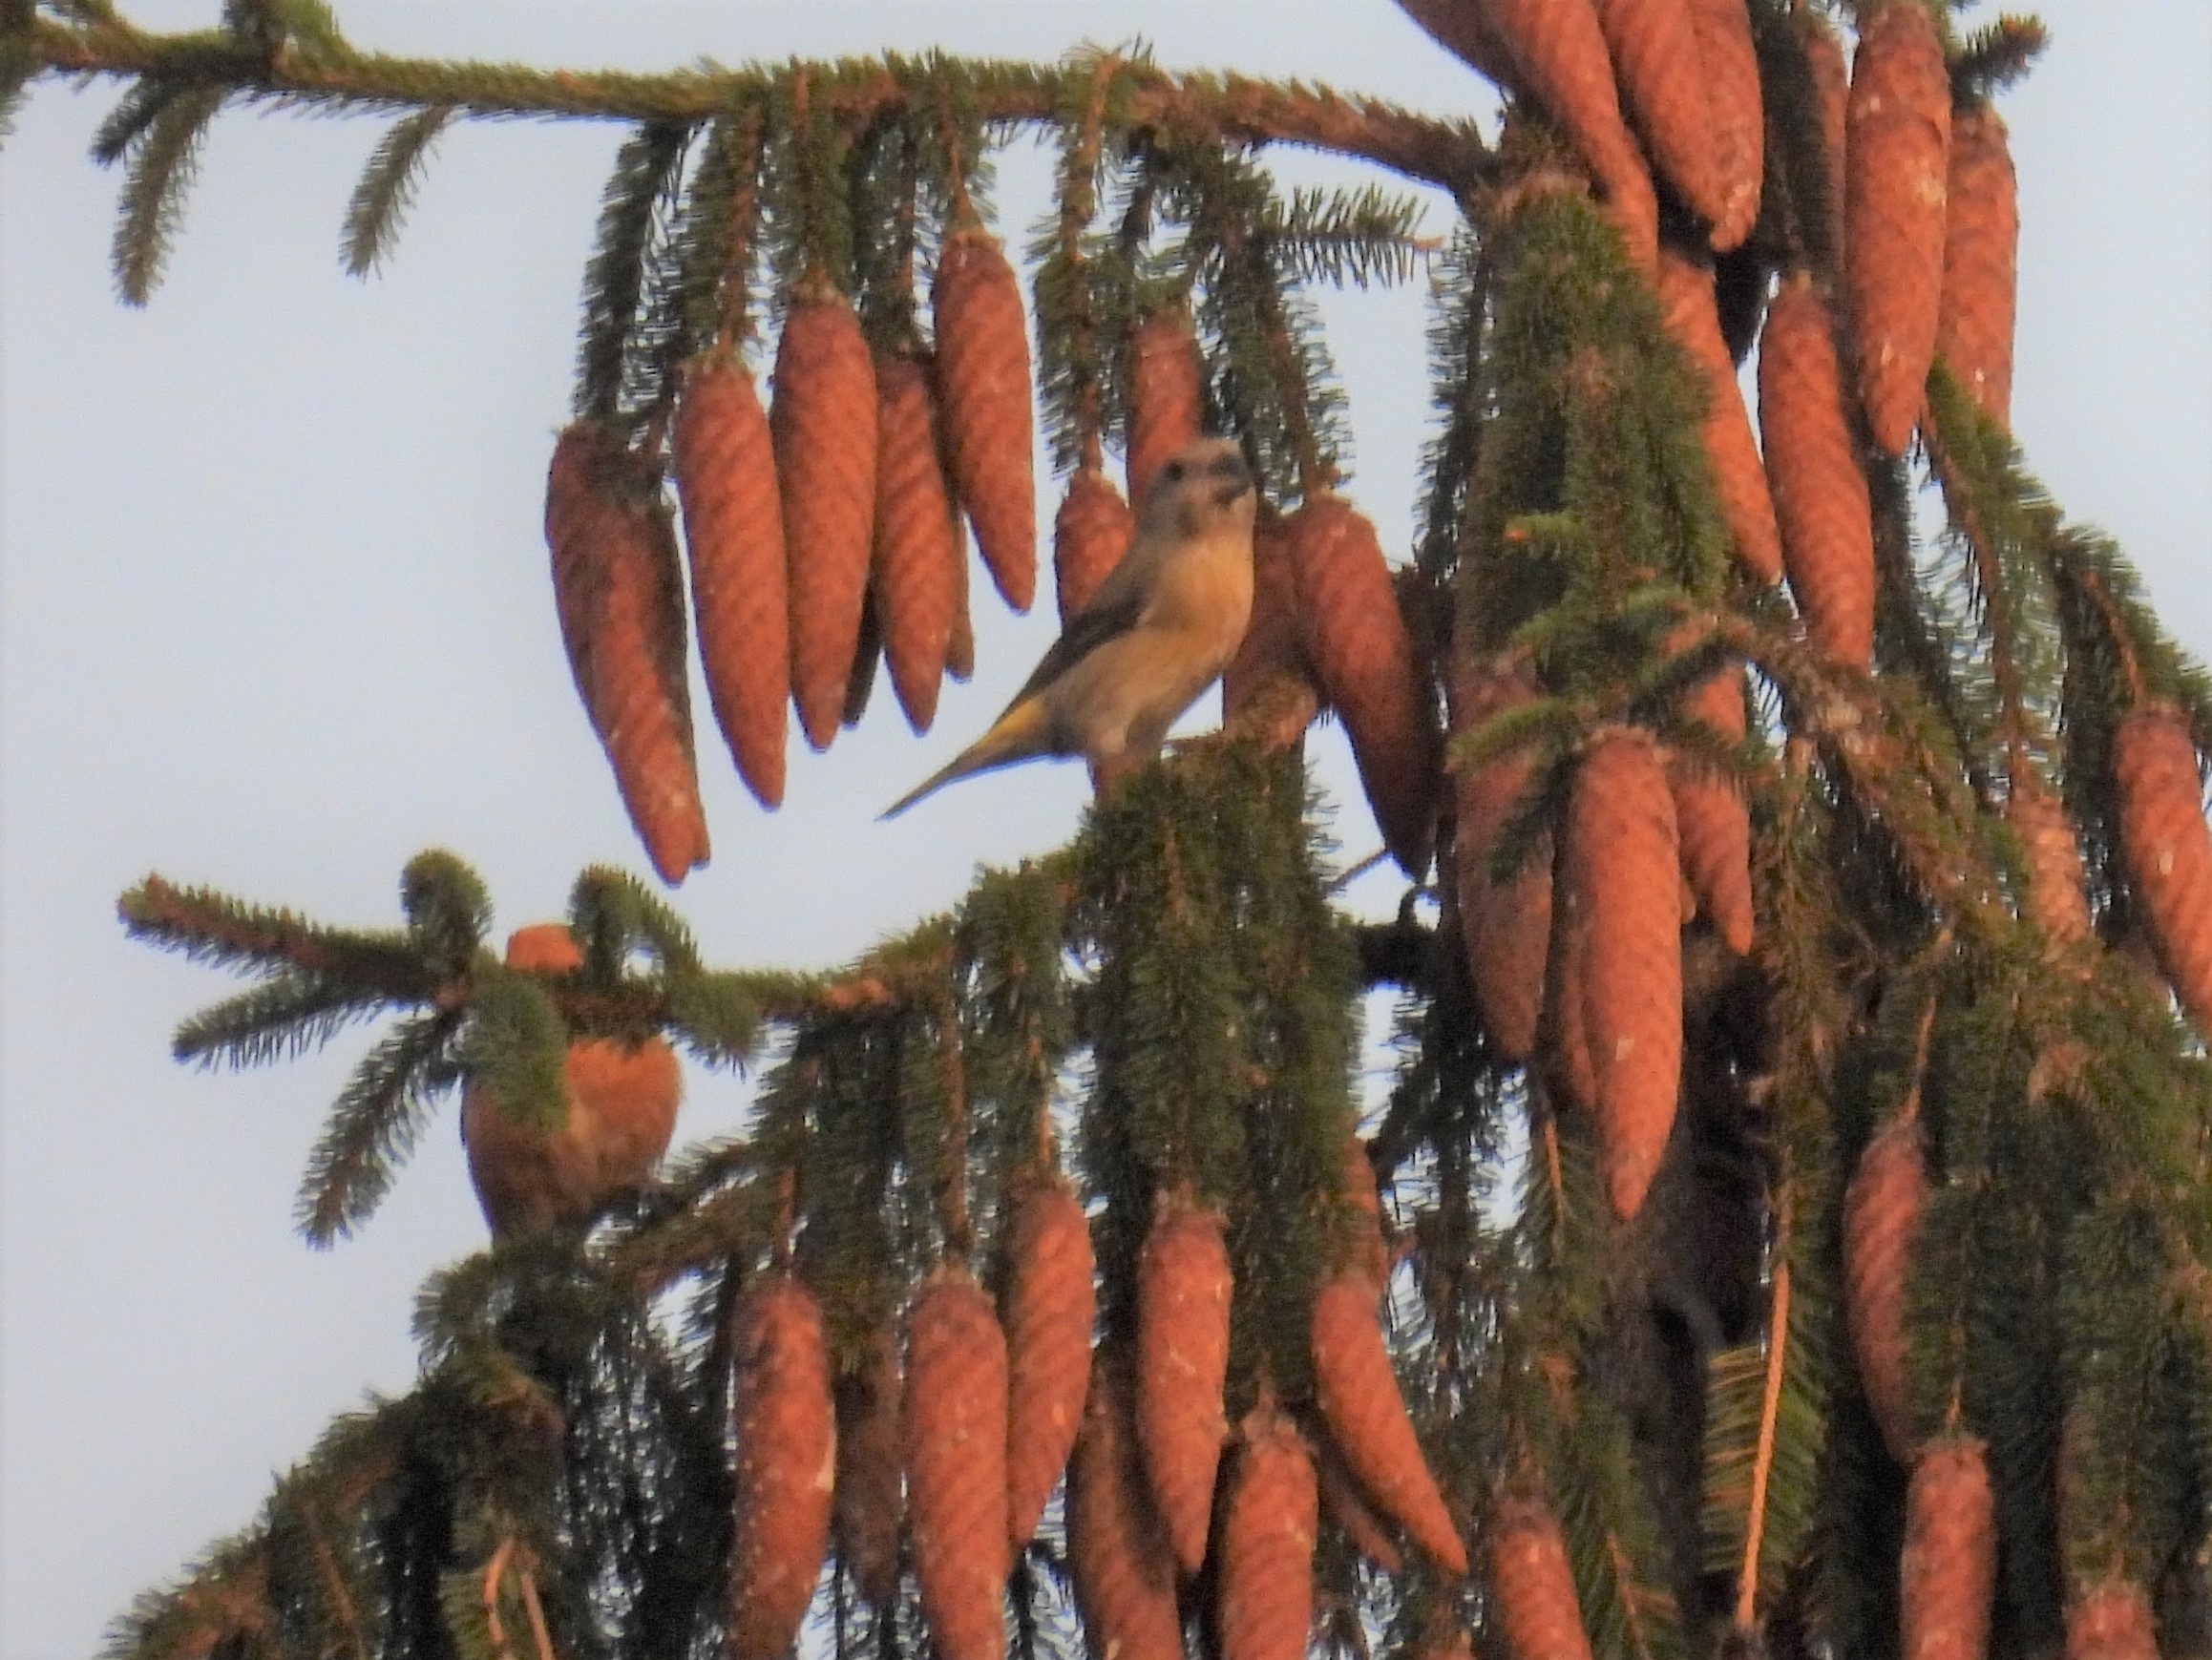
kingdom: Animalia
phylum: Chordata
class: Aves
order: Passeriformes
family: Fringillidae
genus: Loxia
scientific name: Loxia curvirostra
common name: Lille korsnæb
